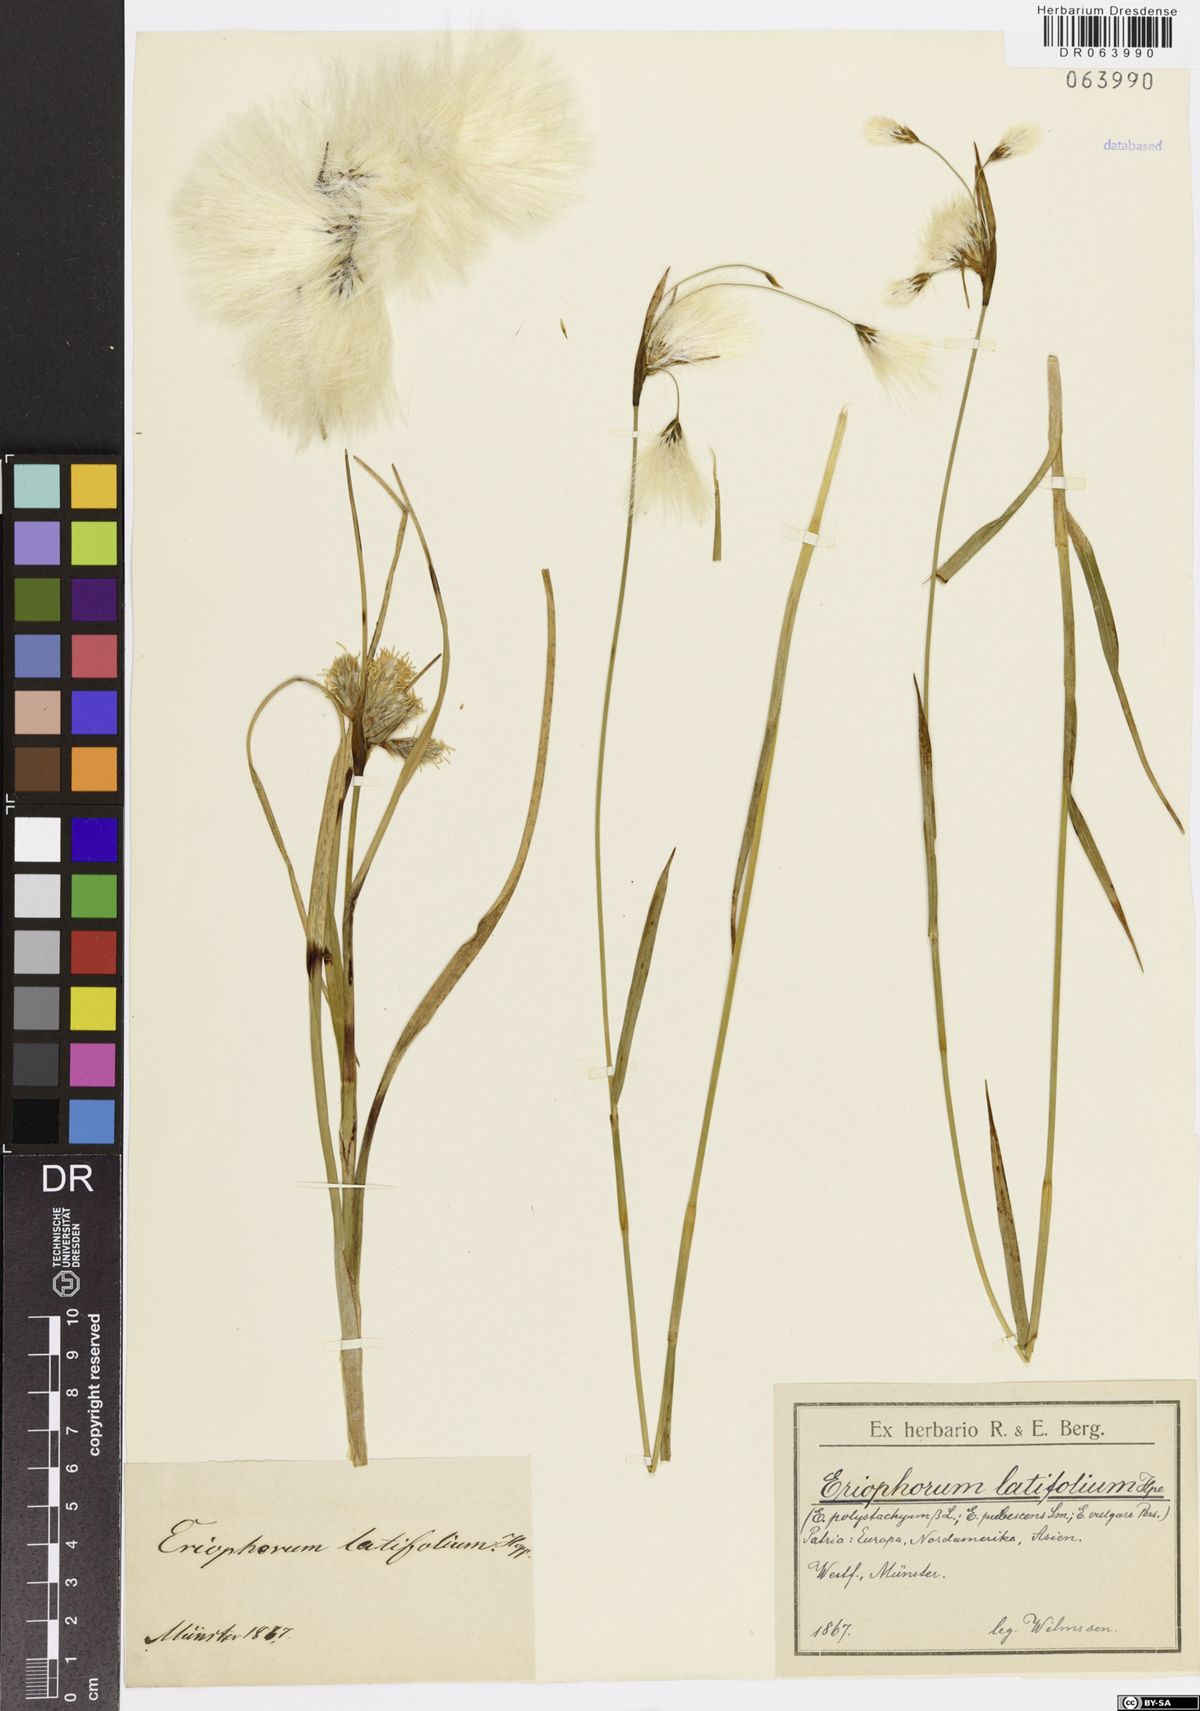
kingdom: Plantae
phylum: Tracheophyta
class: Liliopsida
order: Poales
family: Cyperaceae
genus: Eriophorum
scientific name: Eriophorum latifolium
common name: Broad-leaved cottongrass
